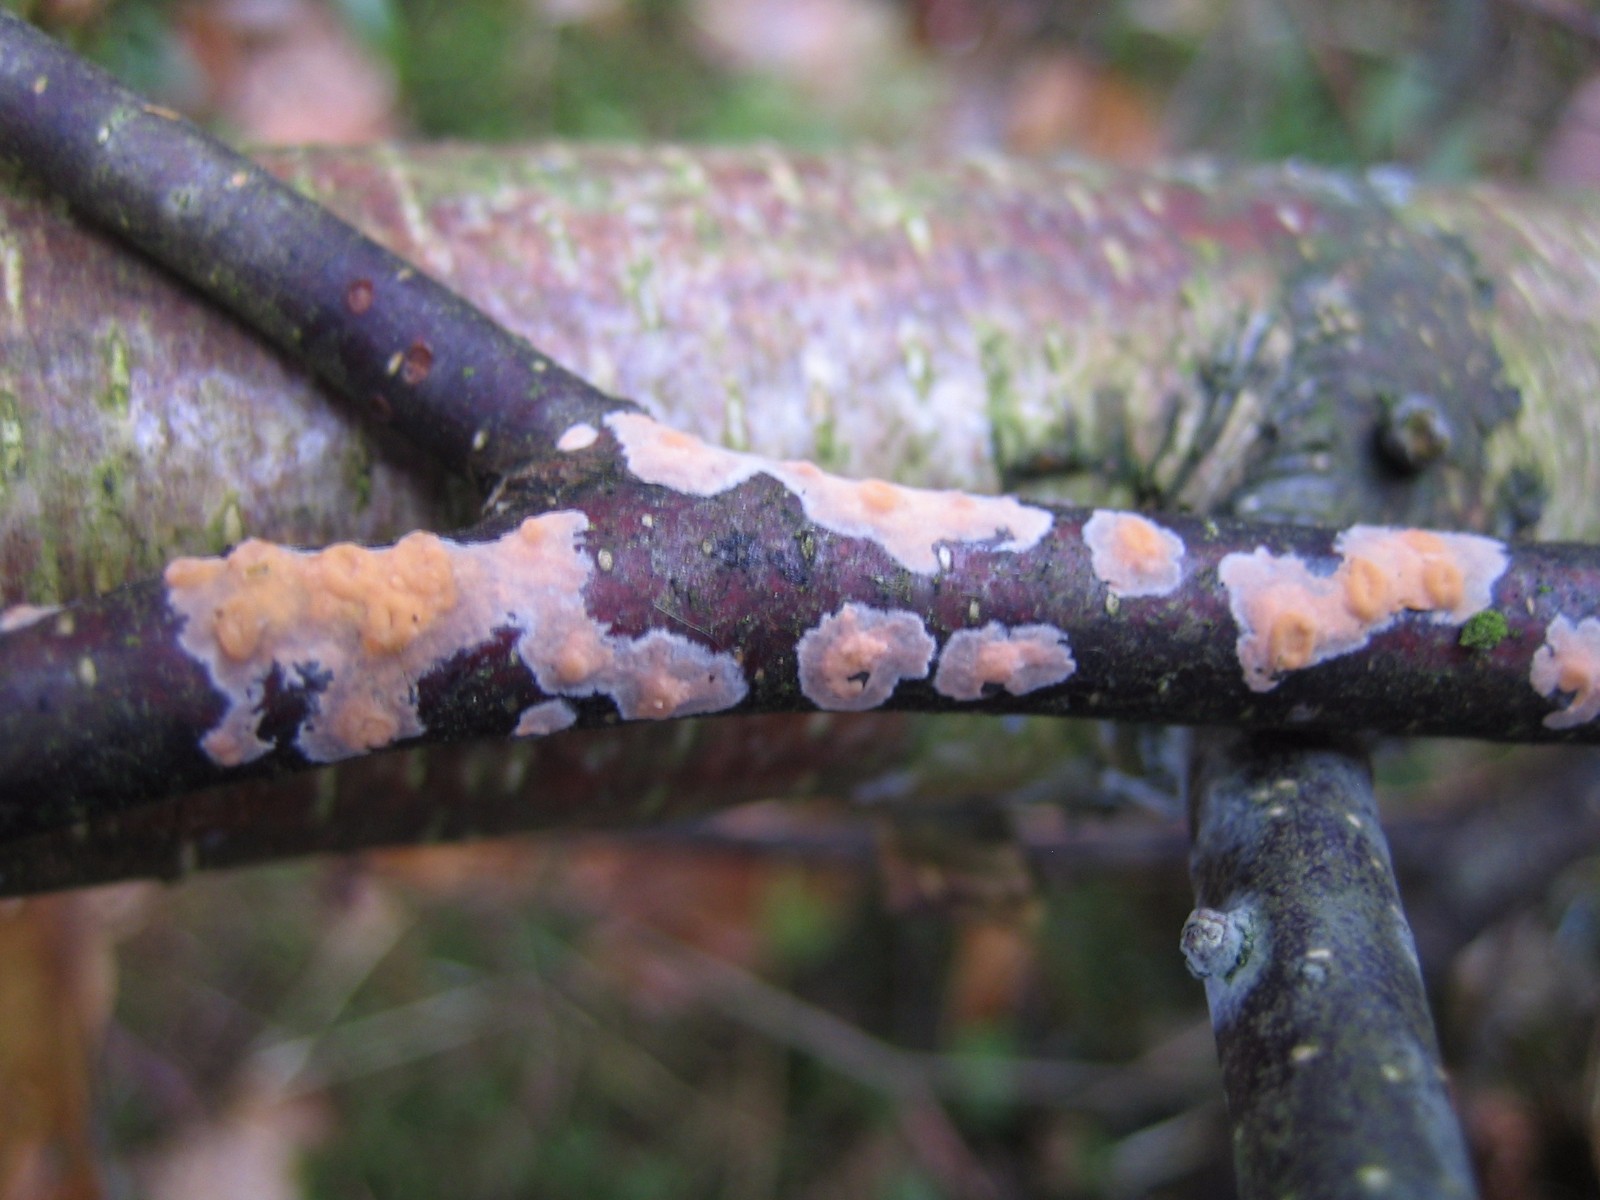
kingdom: Fungi
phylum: Basidiomycota
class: Agaricomycetes
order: Russulales
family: Peniophoraceae
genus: Peniophora
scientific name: Peniophora incarnata
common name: laksefarvet voksskind
